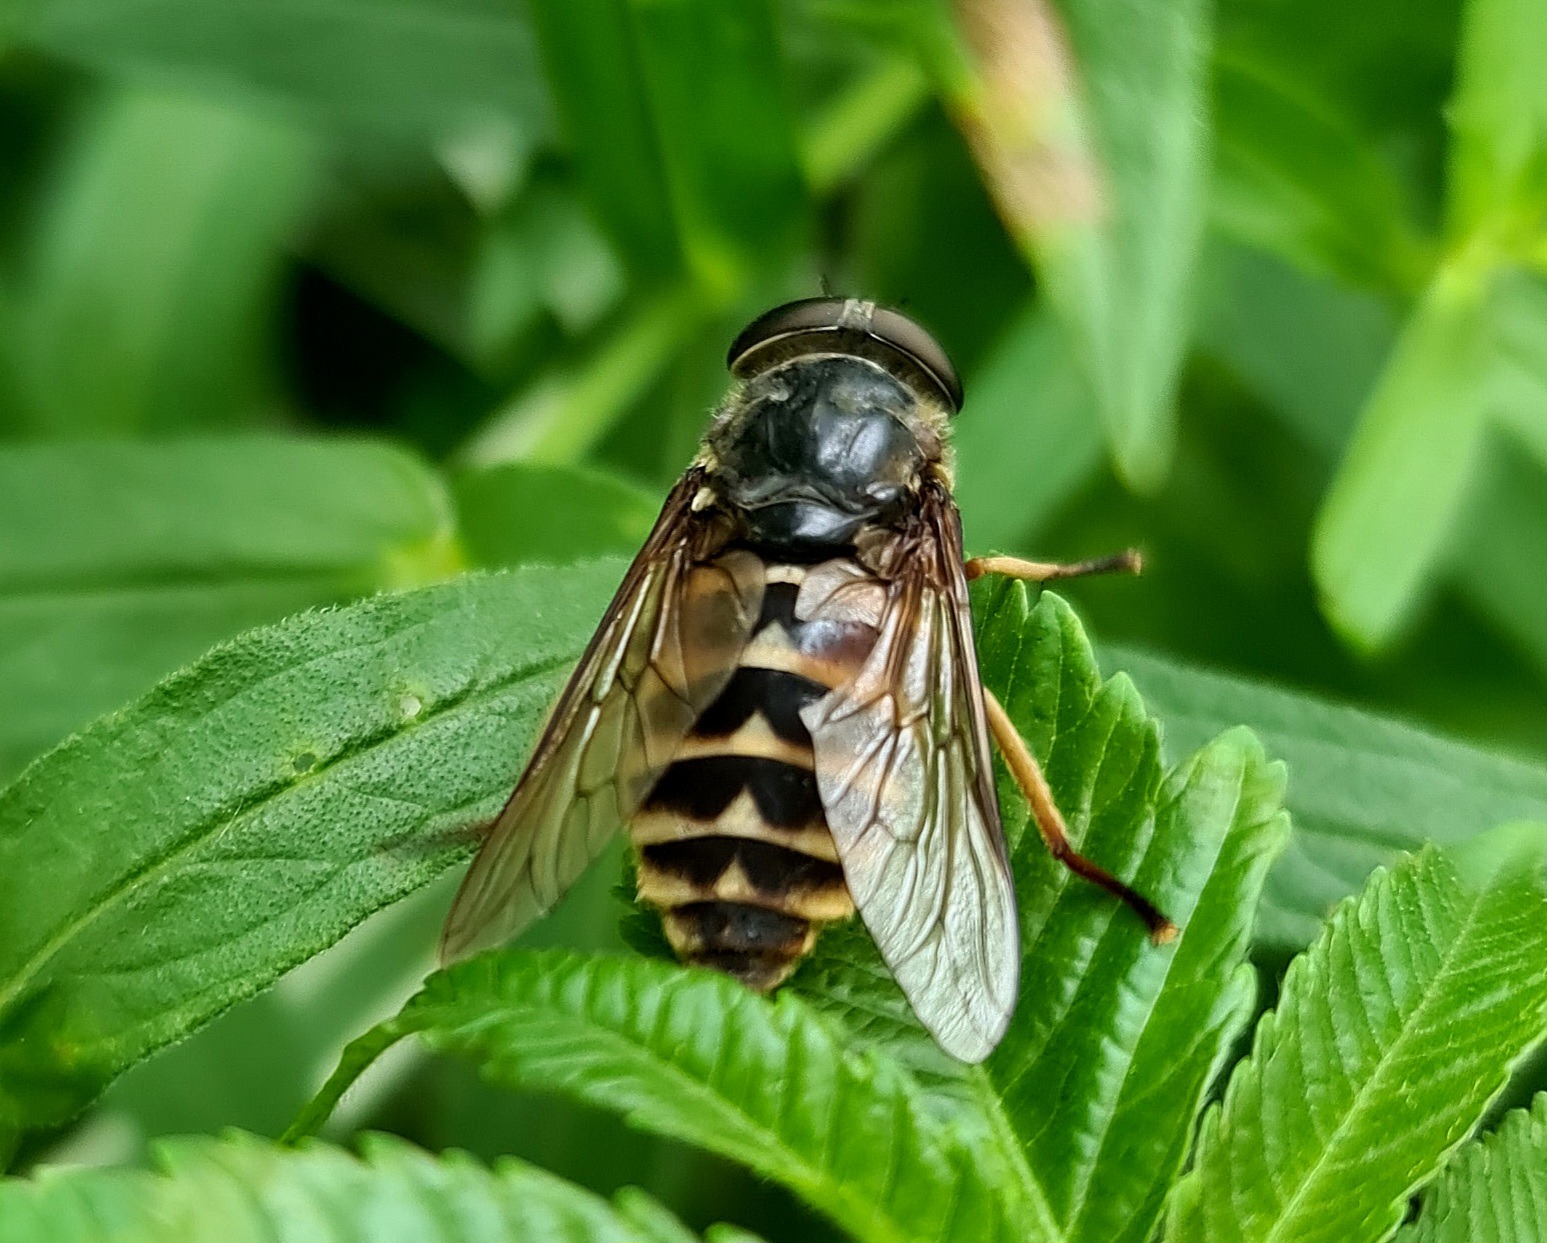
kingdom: Animalia
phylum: Arthropoda
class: Insecta
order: Diptera
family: Tabanidae
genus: Tabanus
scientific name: Tabanus sudeticus
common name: Hesteklæg
